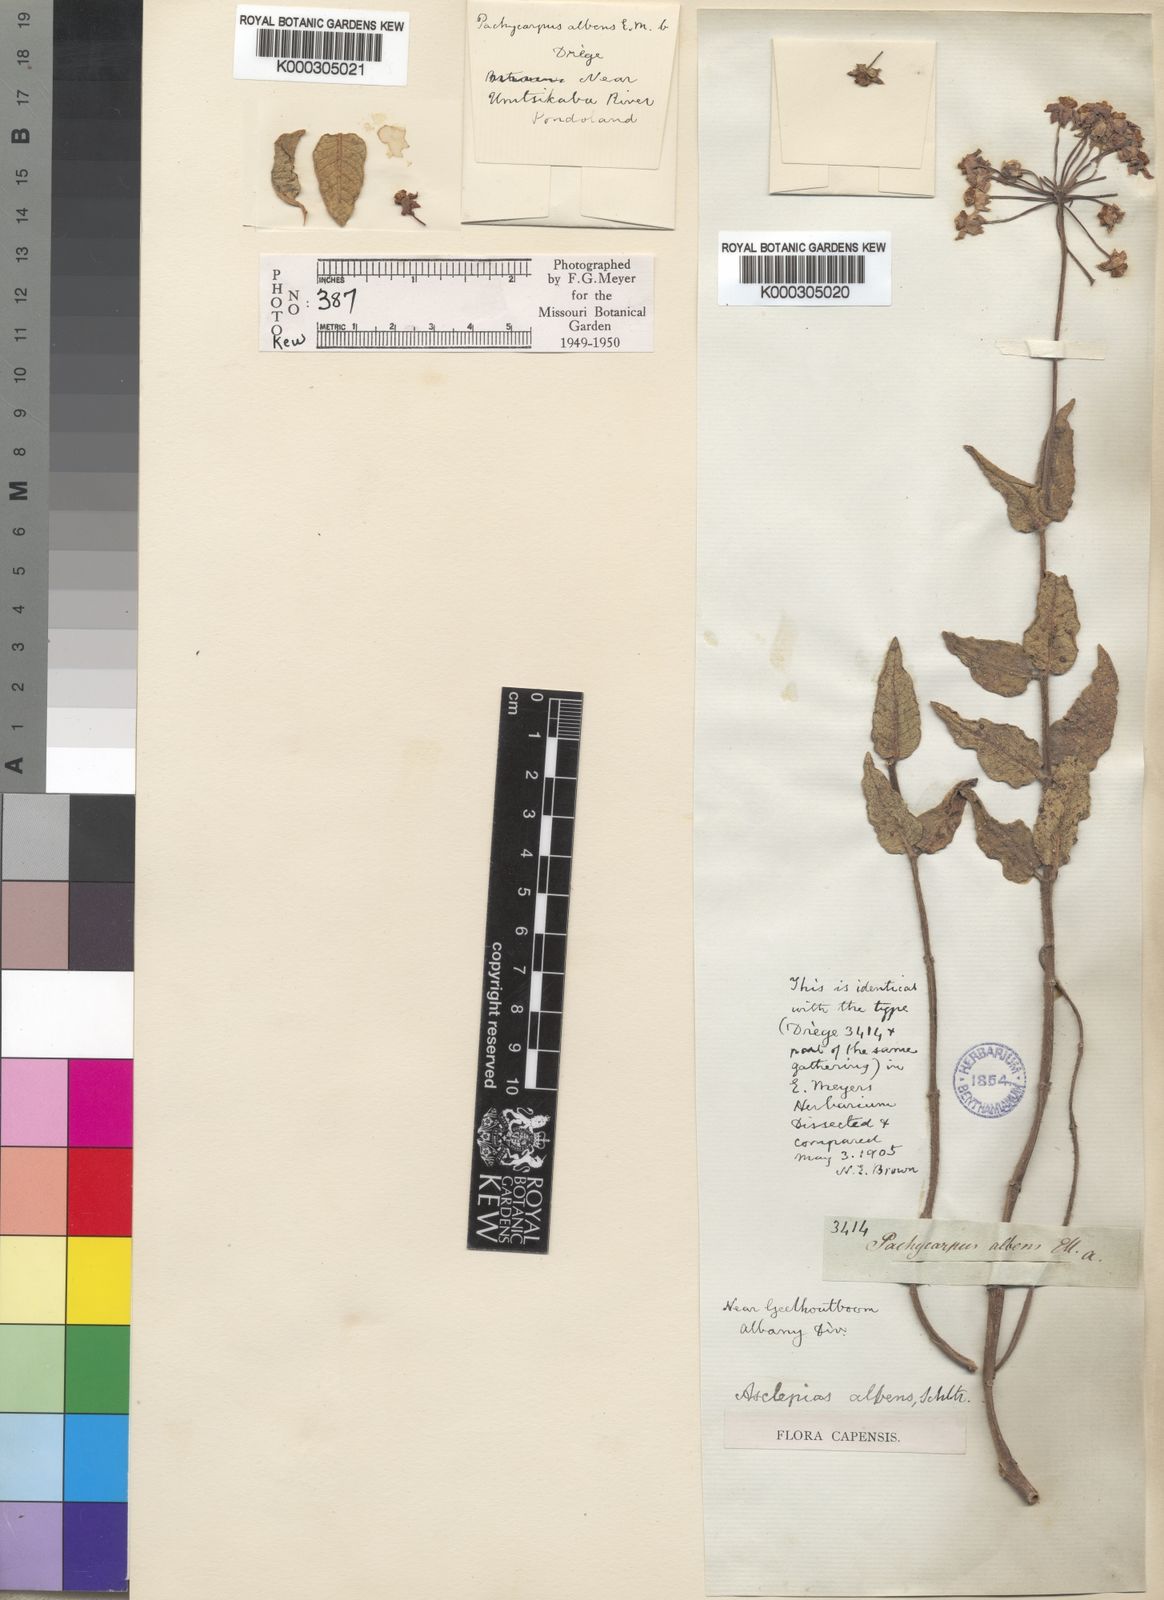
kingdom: Plantae
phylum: Tracheophyta
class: Magnoliopsida
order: Gentianales
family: Apocynaceae
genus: Asclepias
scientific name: Asclepias albens
